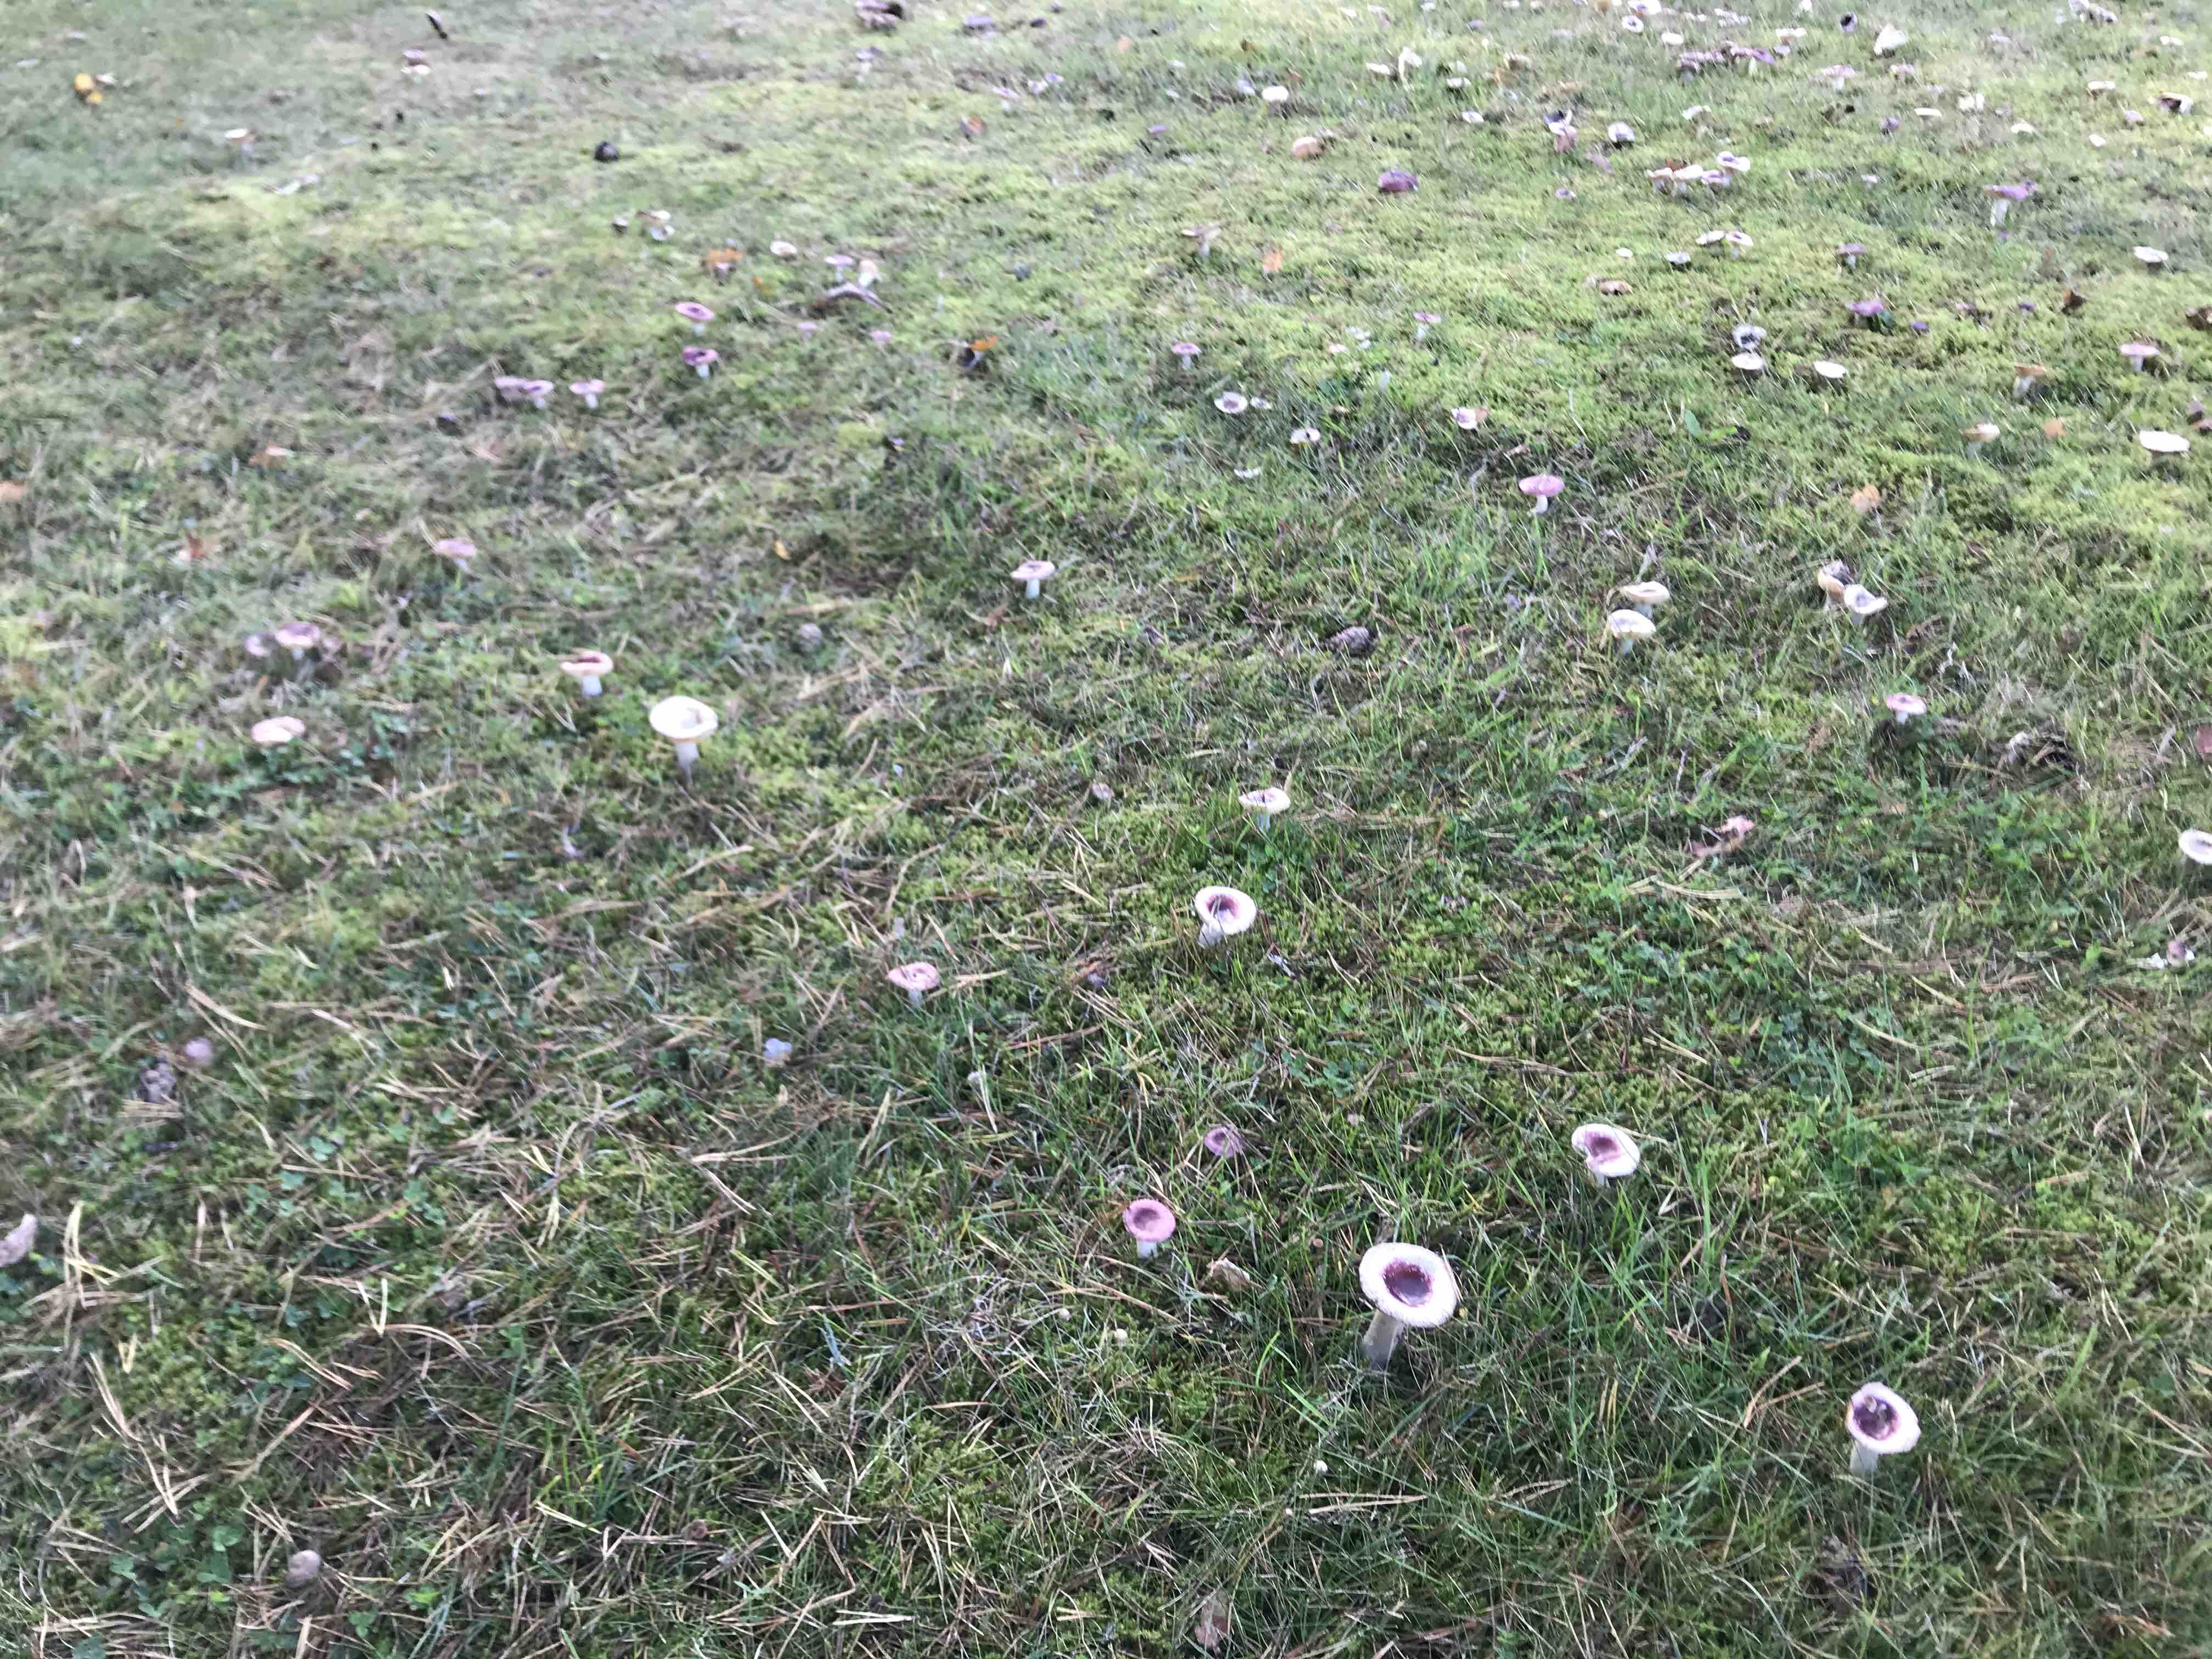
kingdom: Fungi
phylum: Basidiomycota
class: Agaricomycetes
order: Russulales
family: Russulaceae
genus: Russula
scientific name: Russula cessans
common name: fyrre-skørhat
